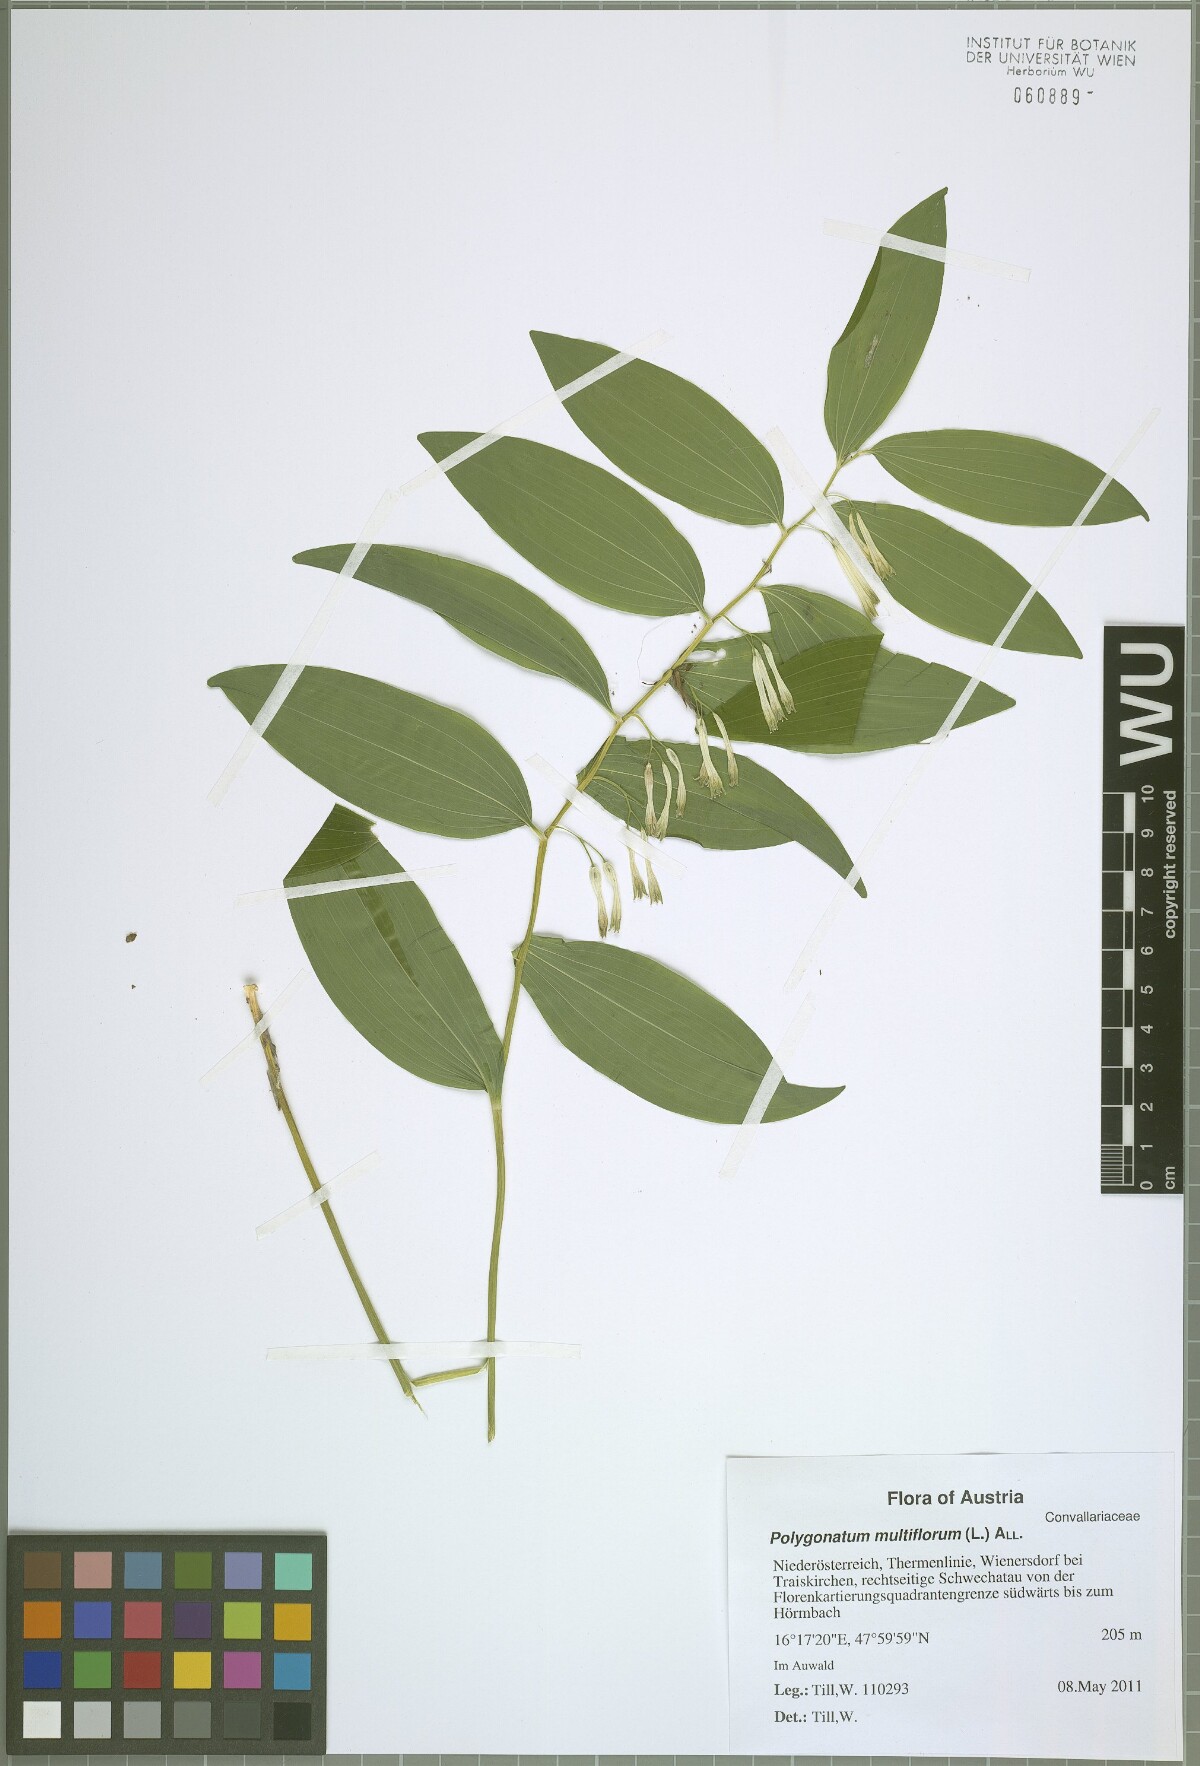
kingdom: Plantae
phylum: Tracheophyta
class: Liliopsida
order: Asparagales
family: Asparagaceae
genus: Polygonatum
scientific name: Polygonatum multiflorum
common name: Solomon's-seal
